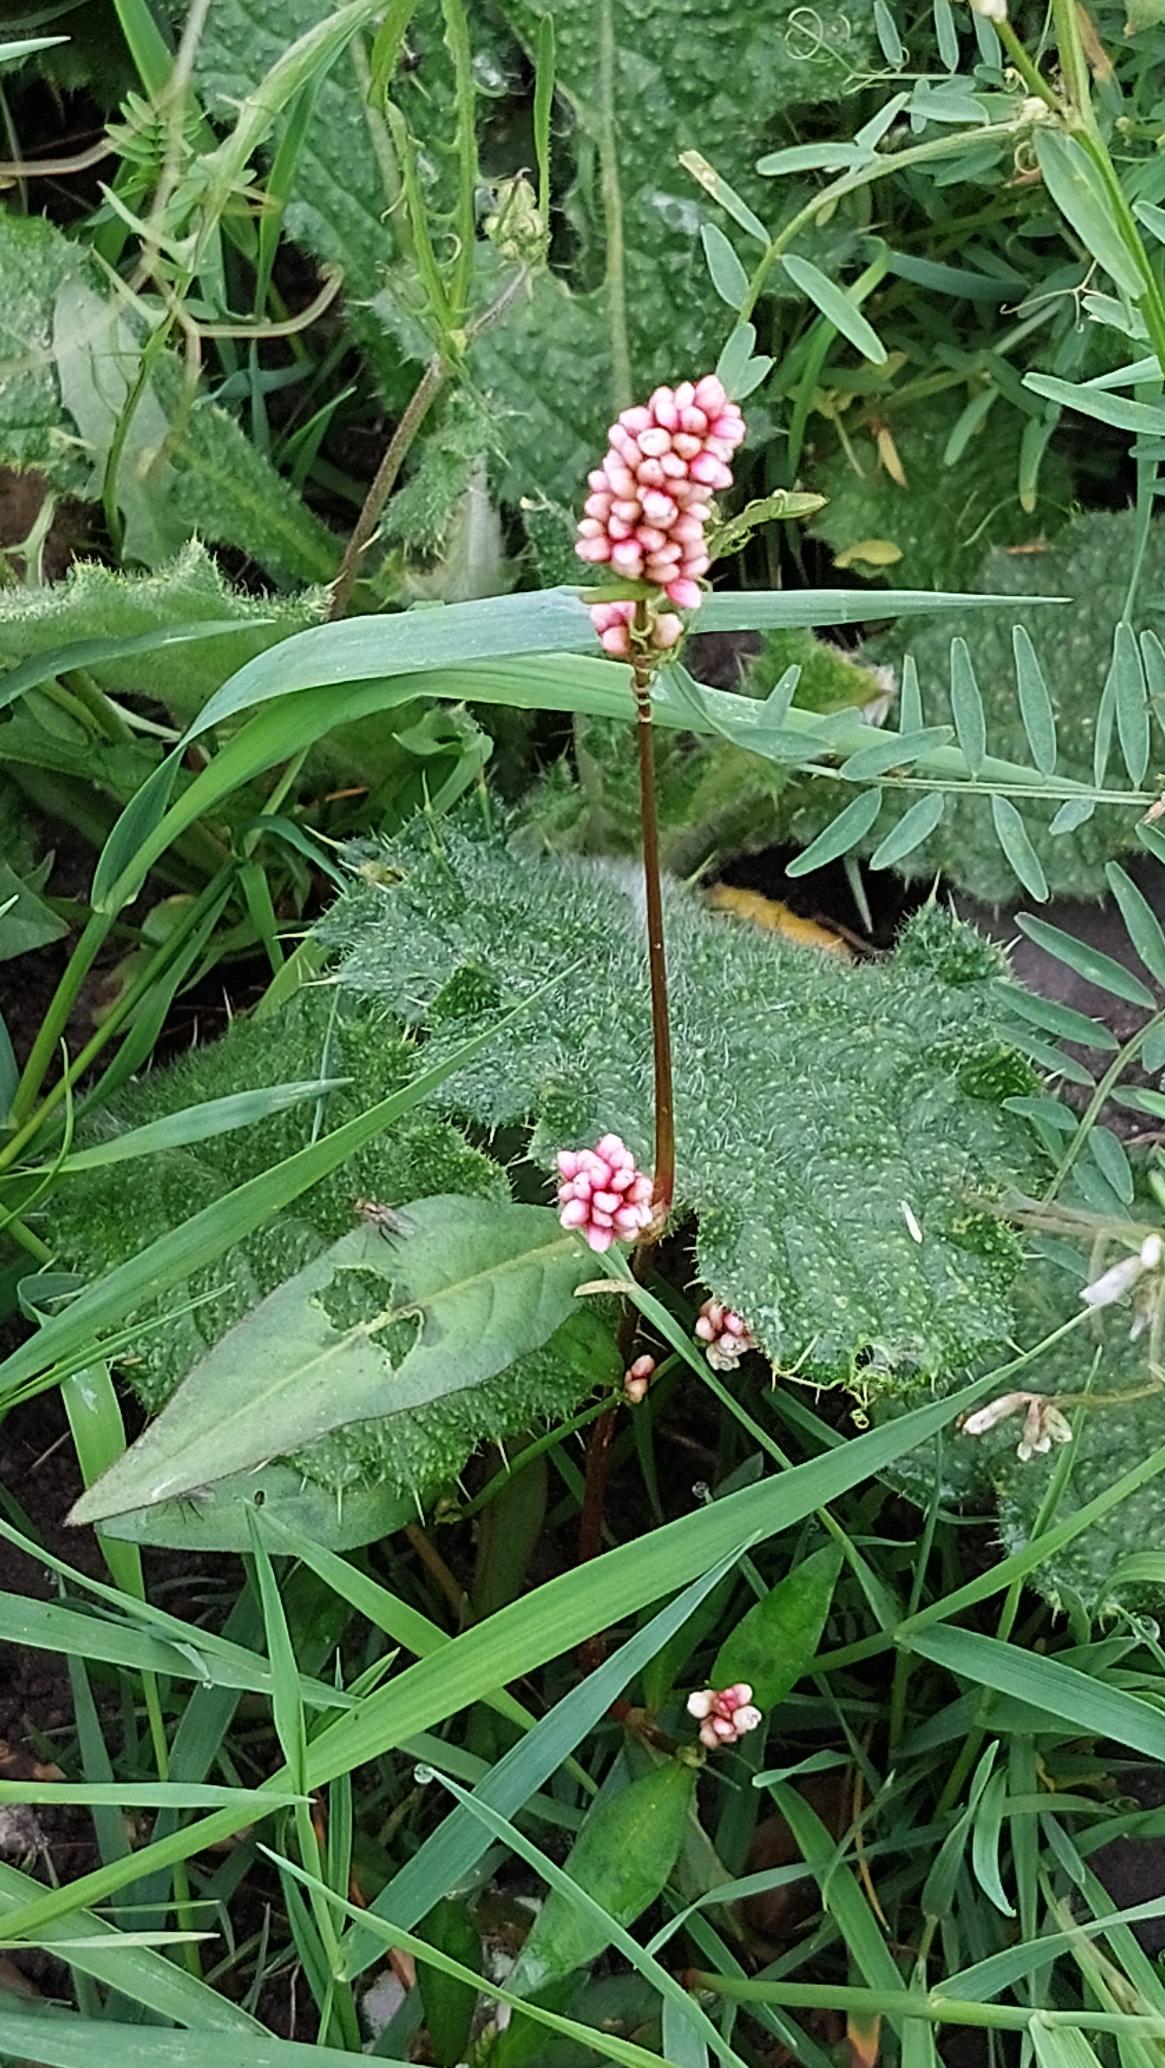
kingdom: Plantae
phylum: Tracheophyta
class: Magnoliopsida
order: Caryophyllales
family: Polygonaceae
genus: Persicaria
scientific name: Persicaria maculosa
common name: Fersken-pileurt
